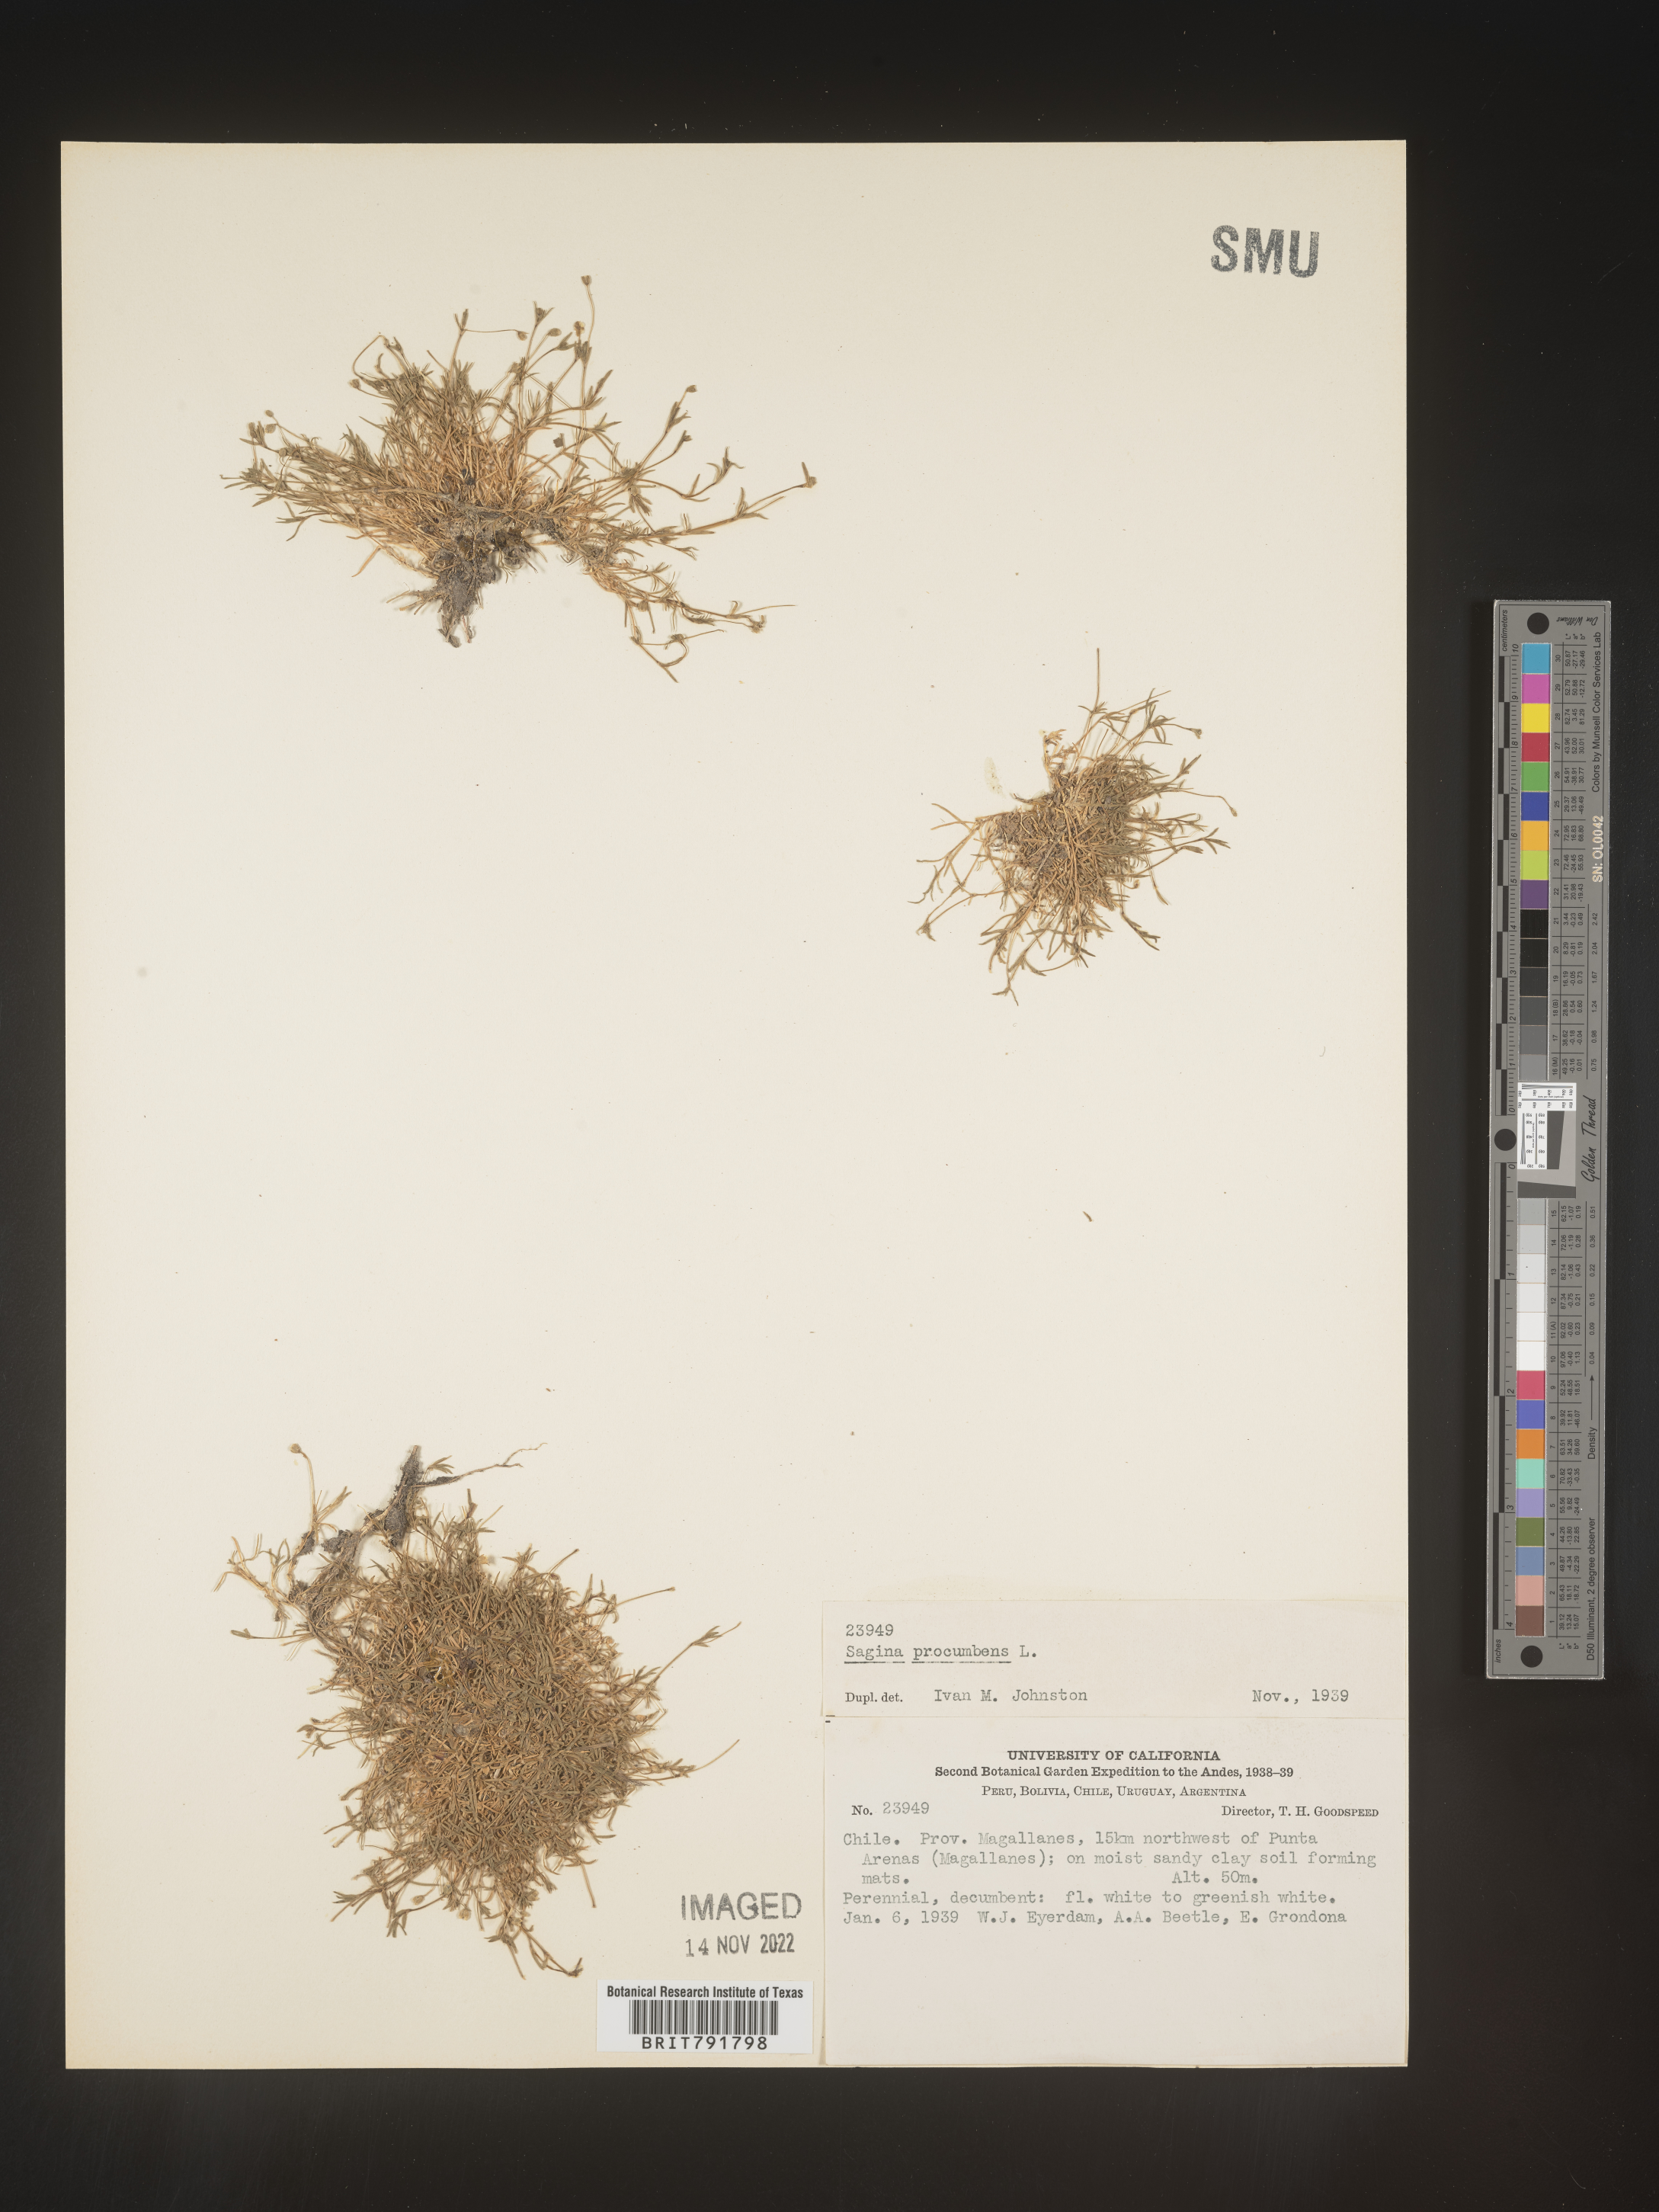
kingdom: Plantae
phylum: Tracheophyta
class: Magnoliopsida
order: Caryophyllales
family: Caryophyllaceae
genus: Sagina
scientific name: Sagina
